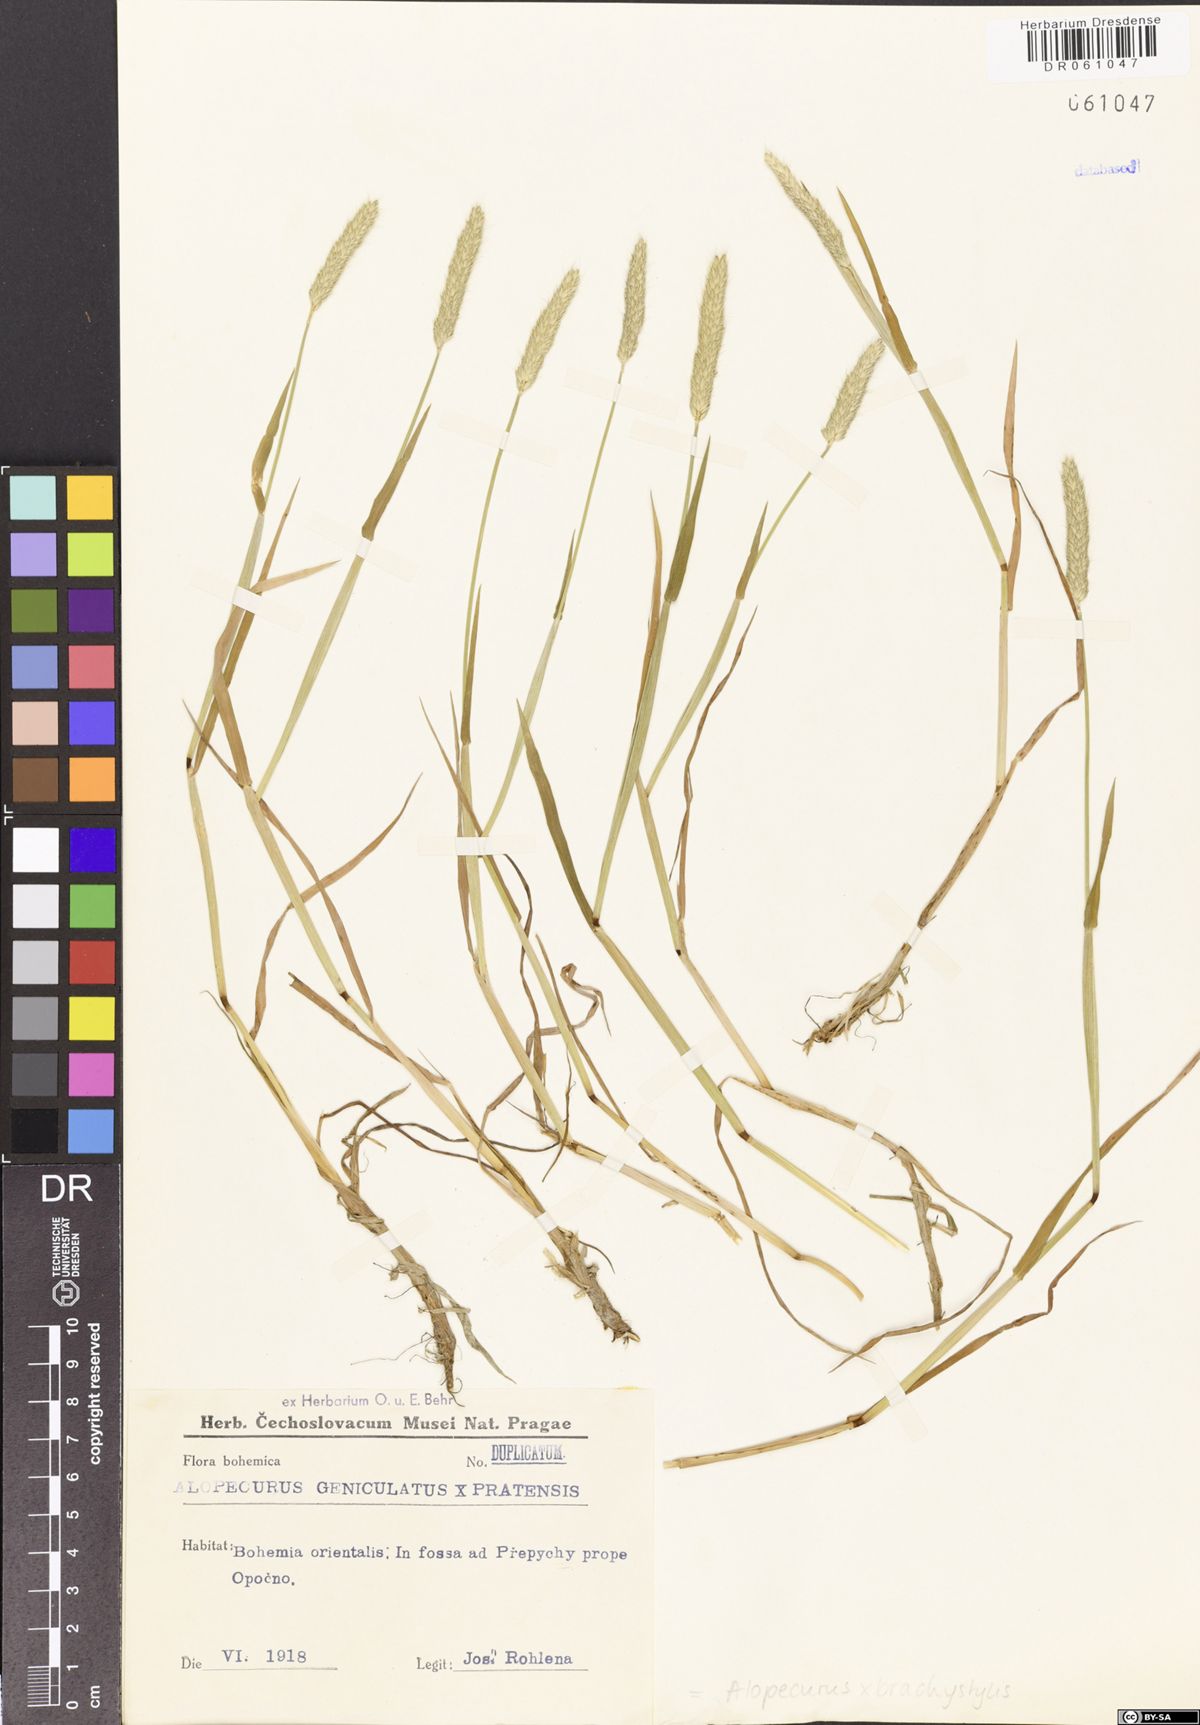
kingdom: Plantae
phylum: Tracheophyta
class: Liliopsida
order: Poales
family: Poaceae
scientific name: Poaceae
